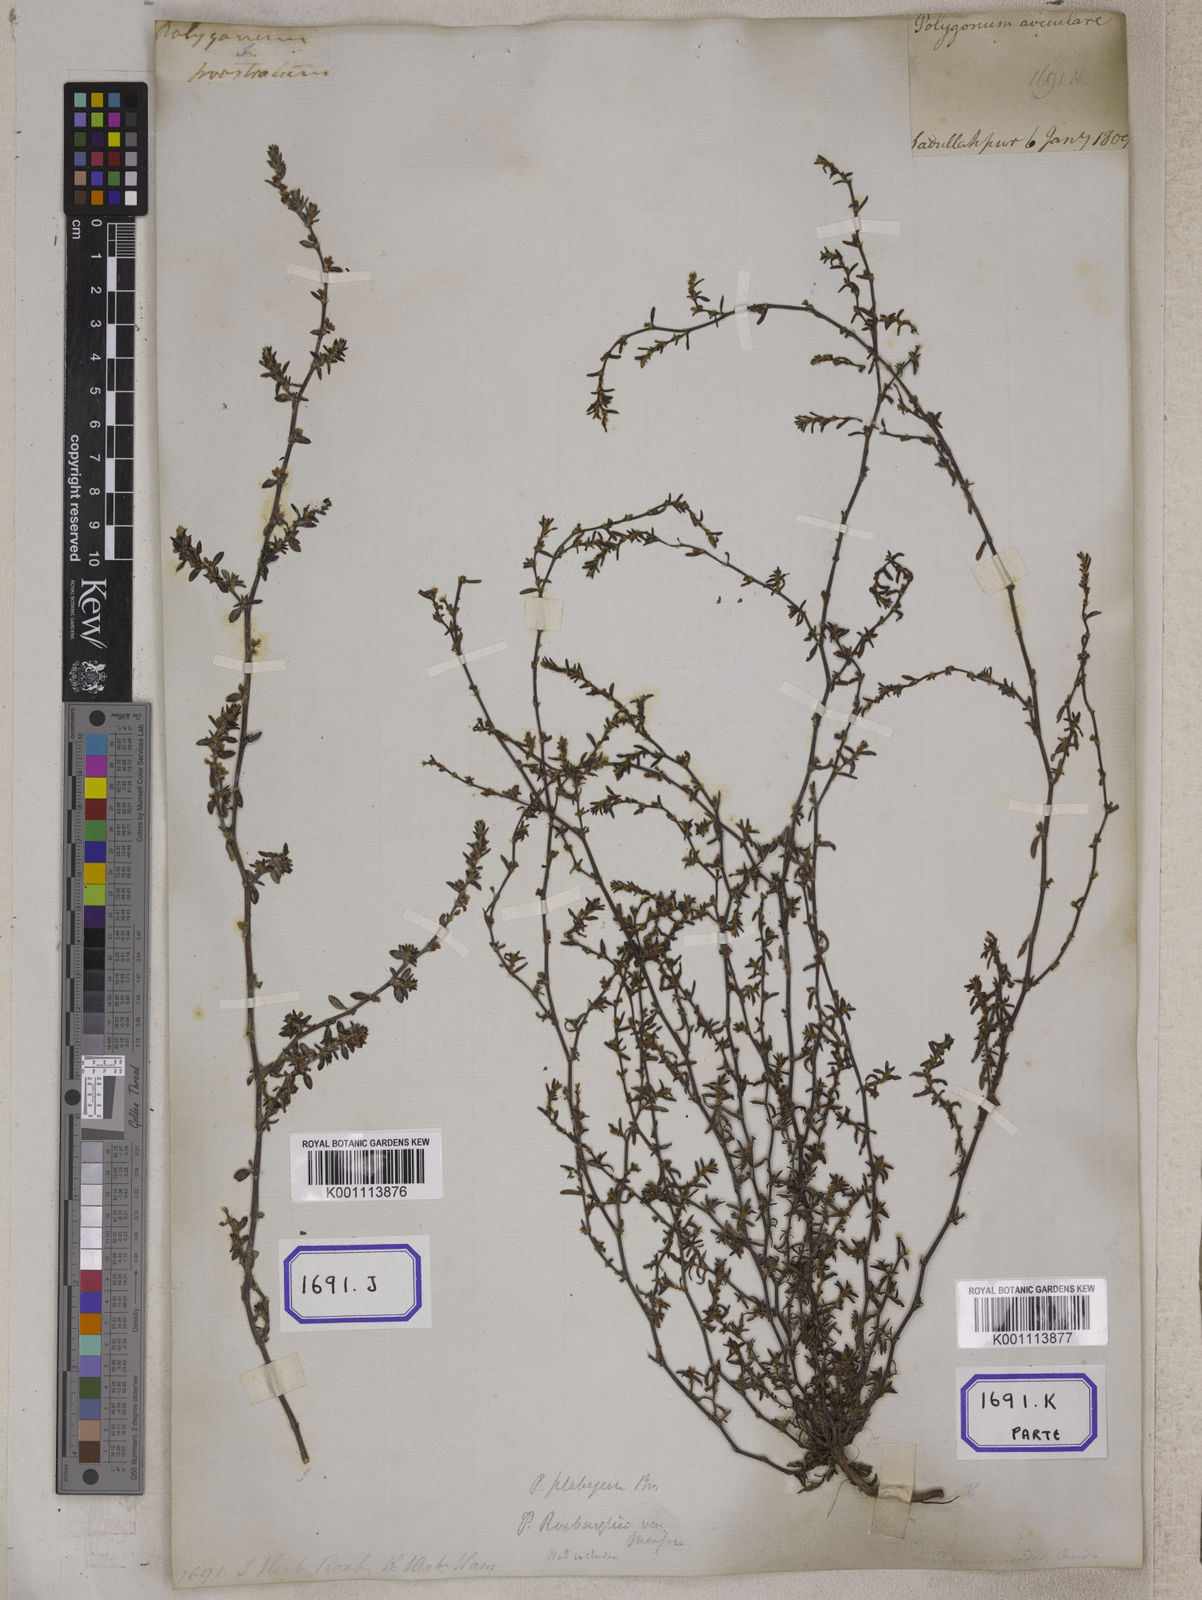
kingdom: Plantae
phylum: Tracheophyta
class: Magnoliopsida
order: Caryophyllales
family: Polygonaceae
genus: Polygonum
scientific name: Polygonum plebeium
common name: Common knotweed
